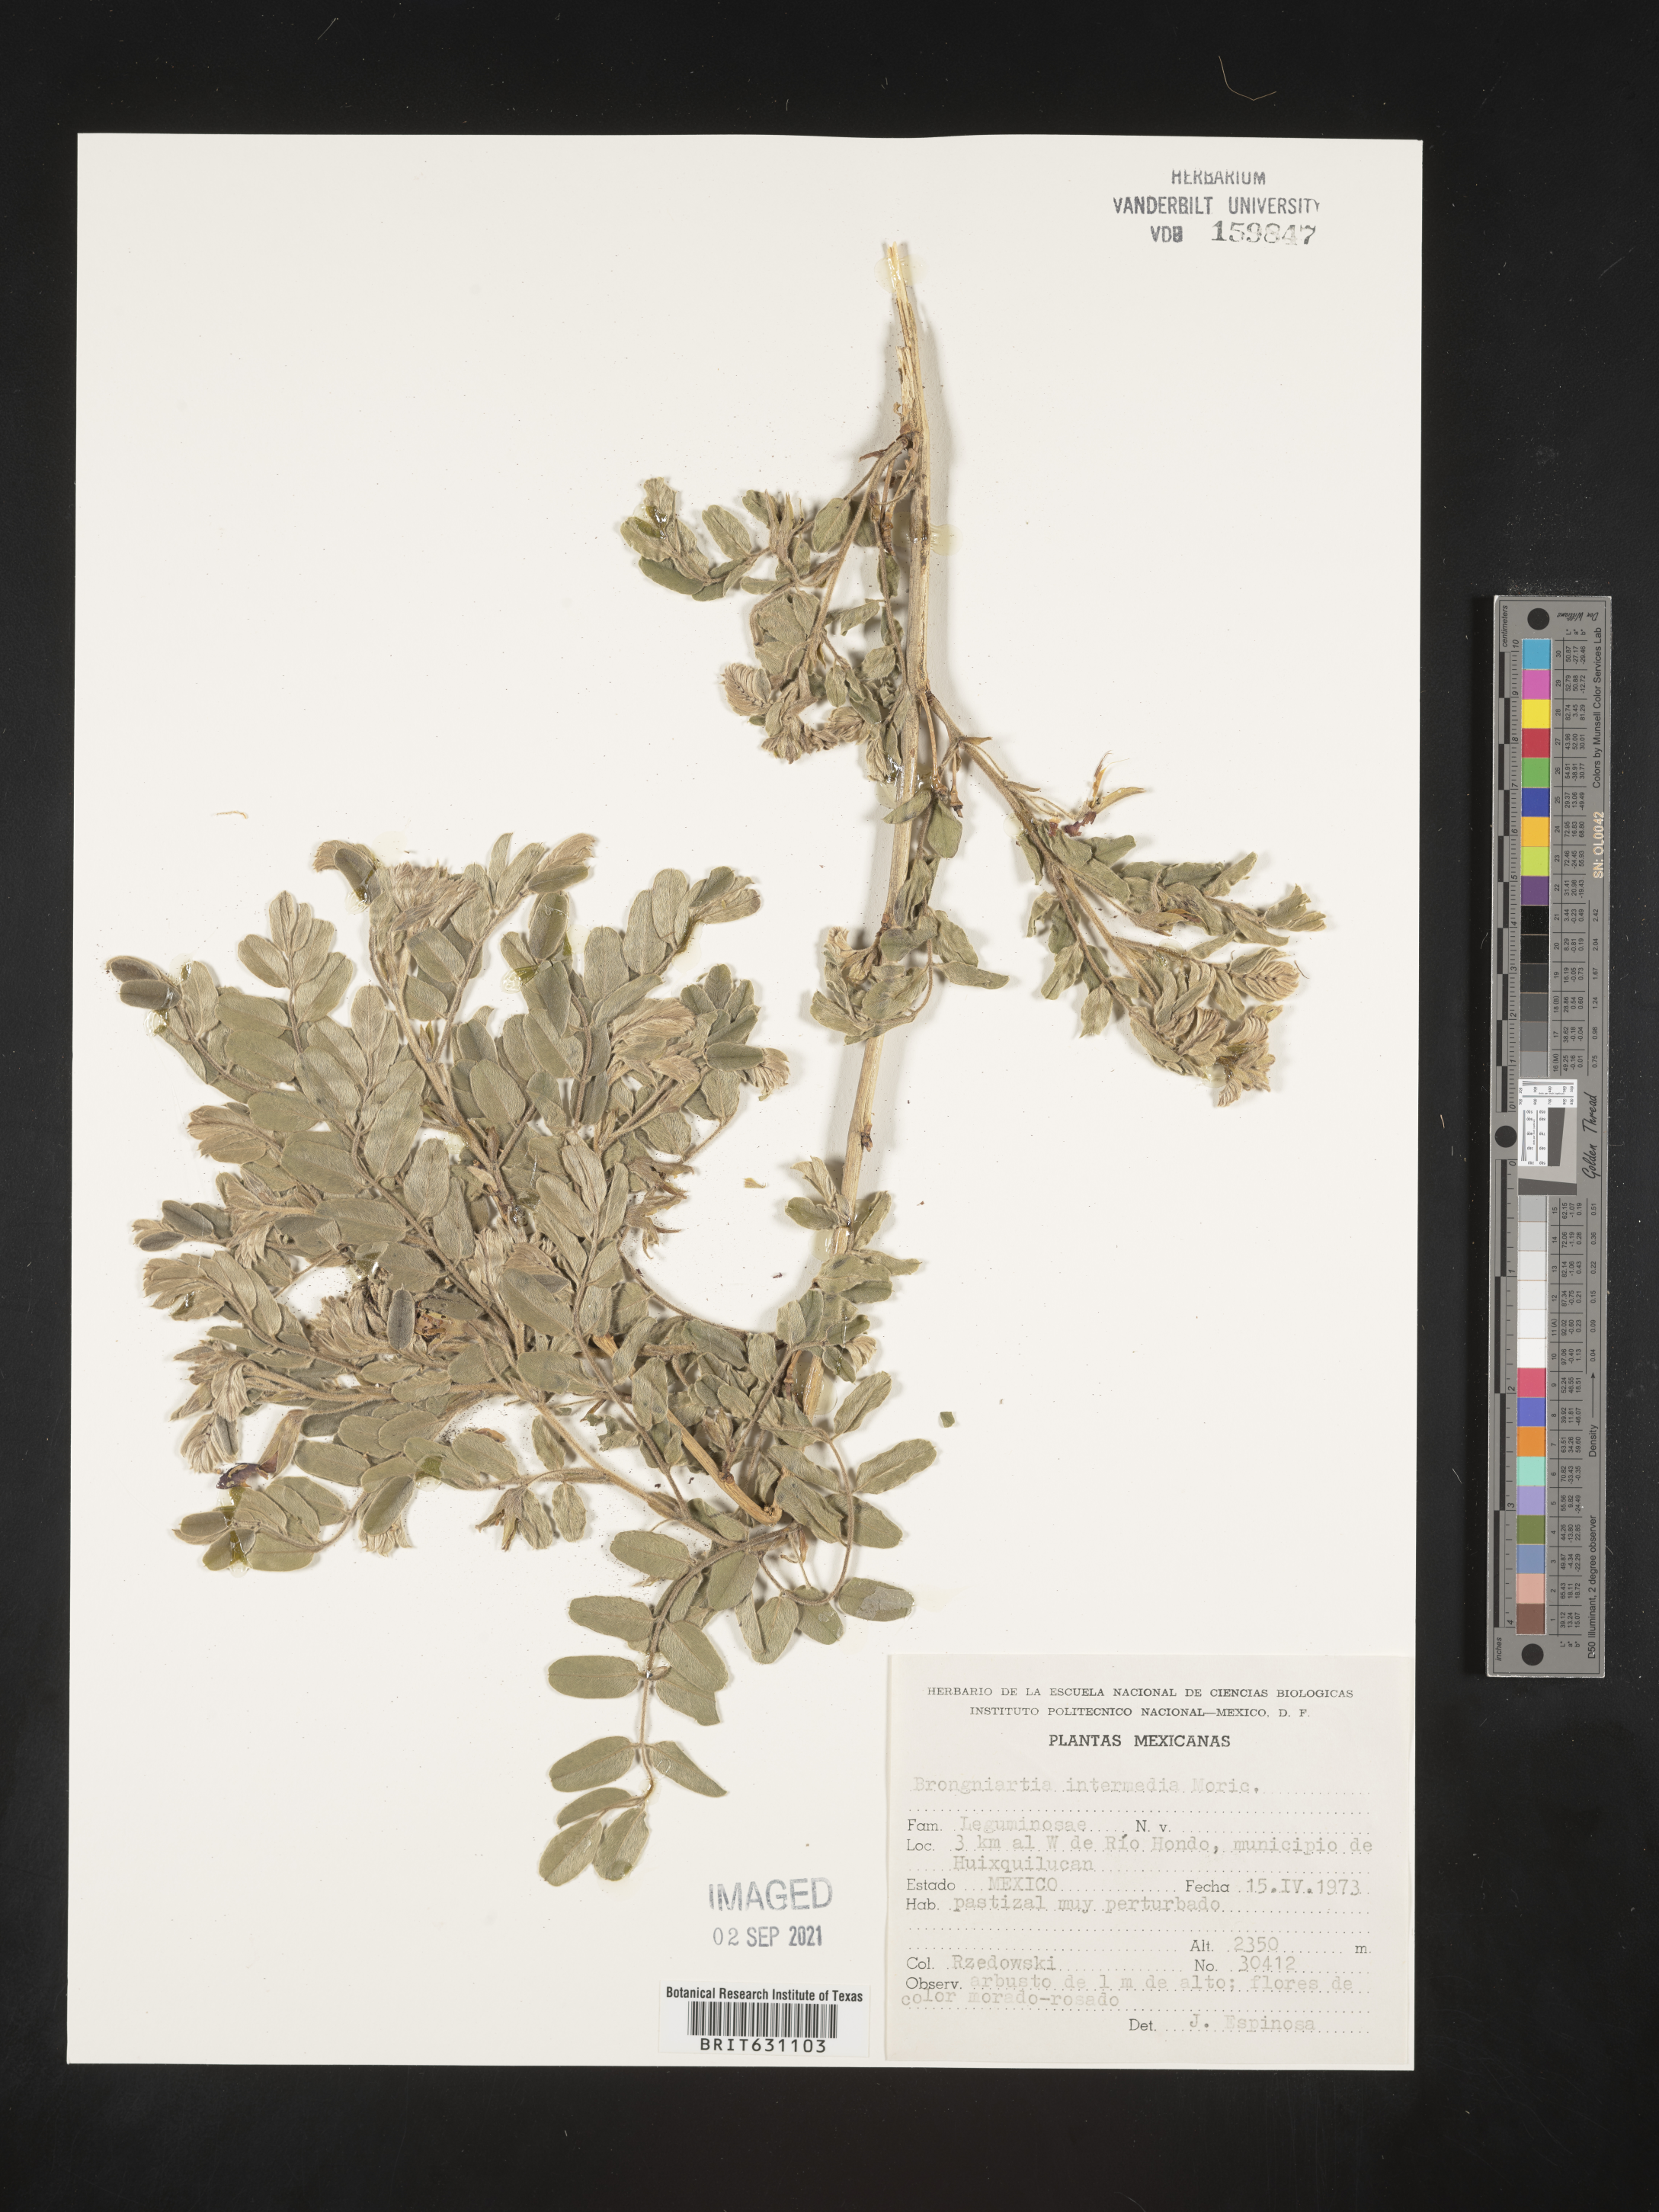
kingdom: Plantae
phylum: Tracheophyta
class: Magnoliopsida
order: Fabales
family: Fabaceae
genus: Brongniartia
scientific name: Brongniartia
